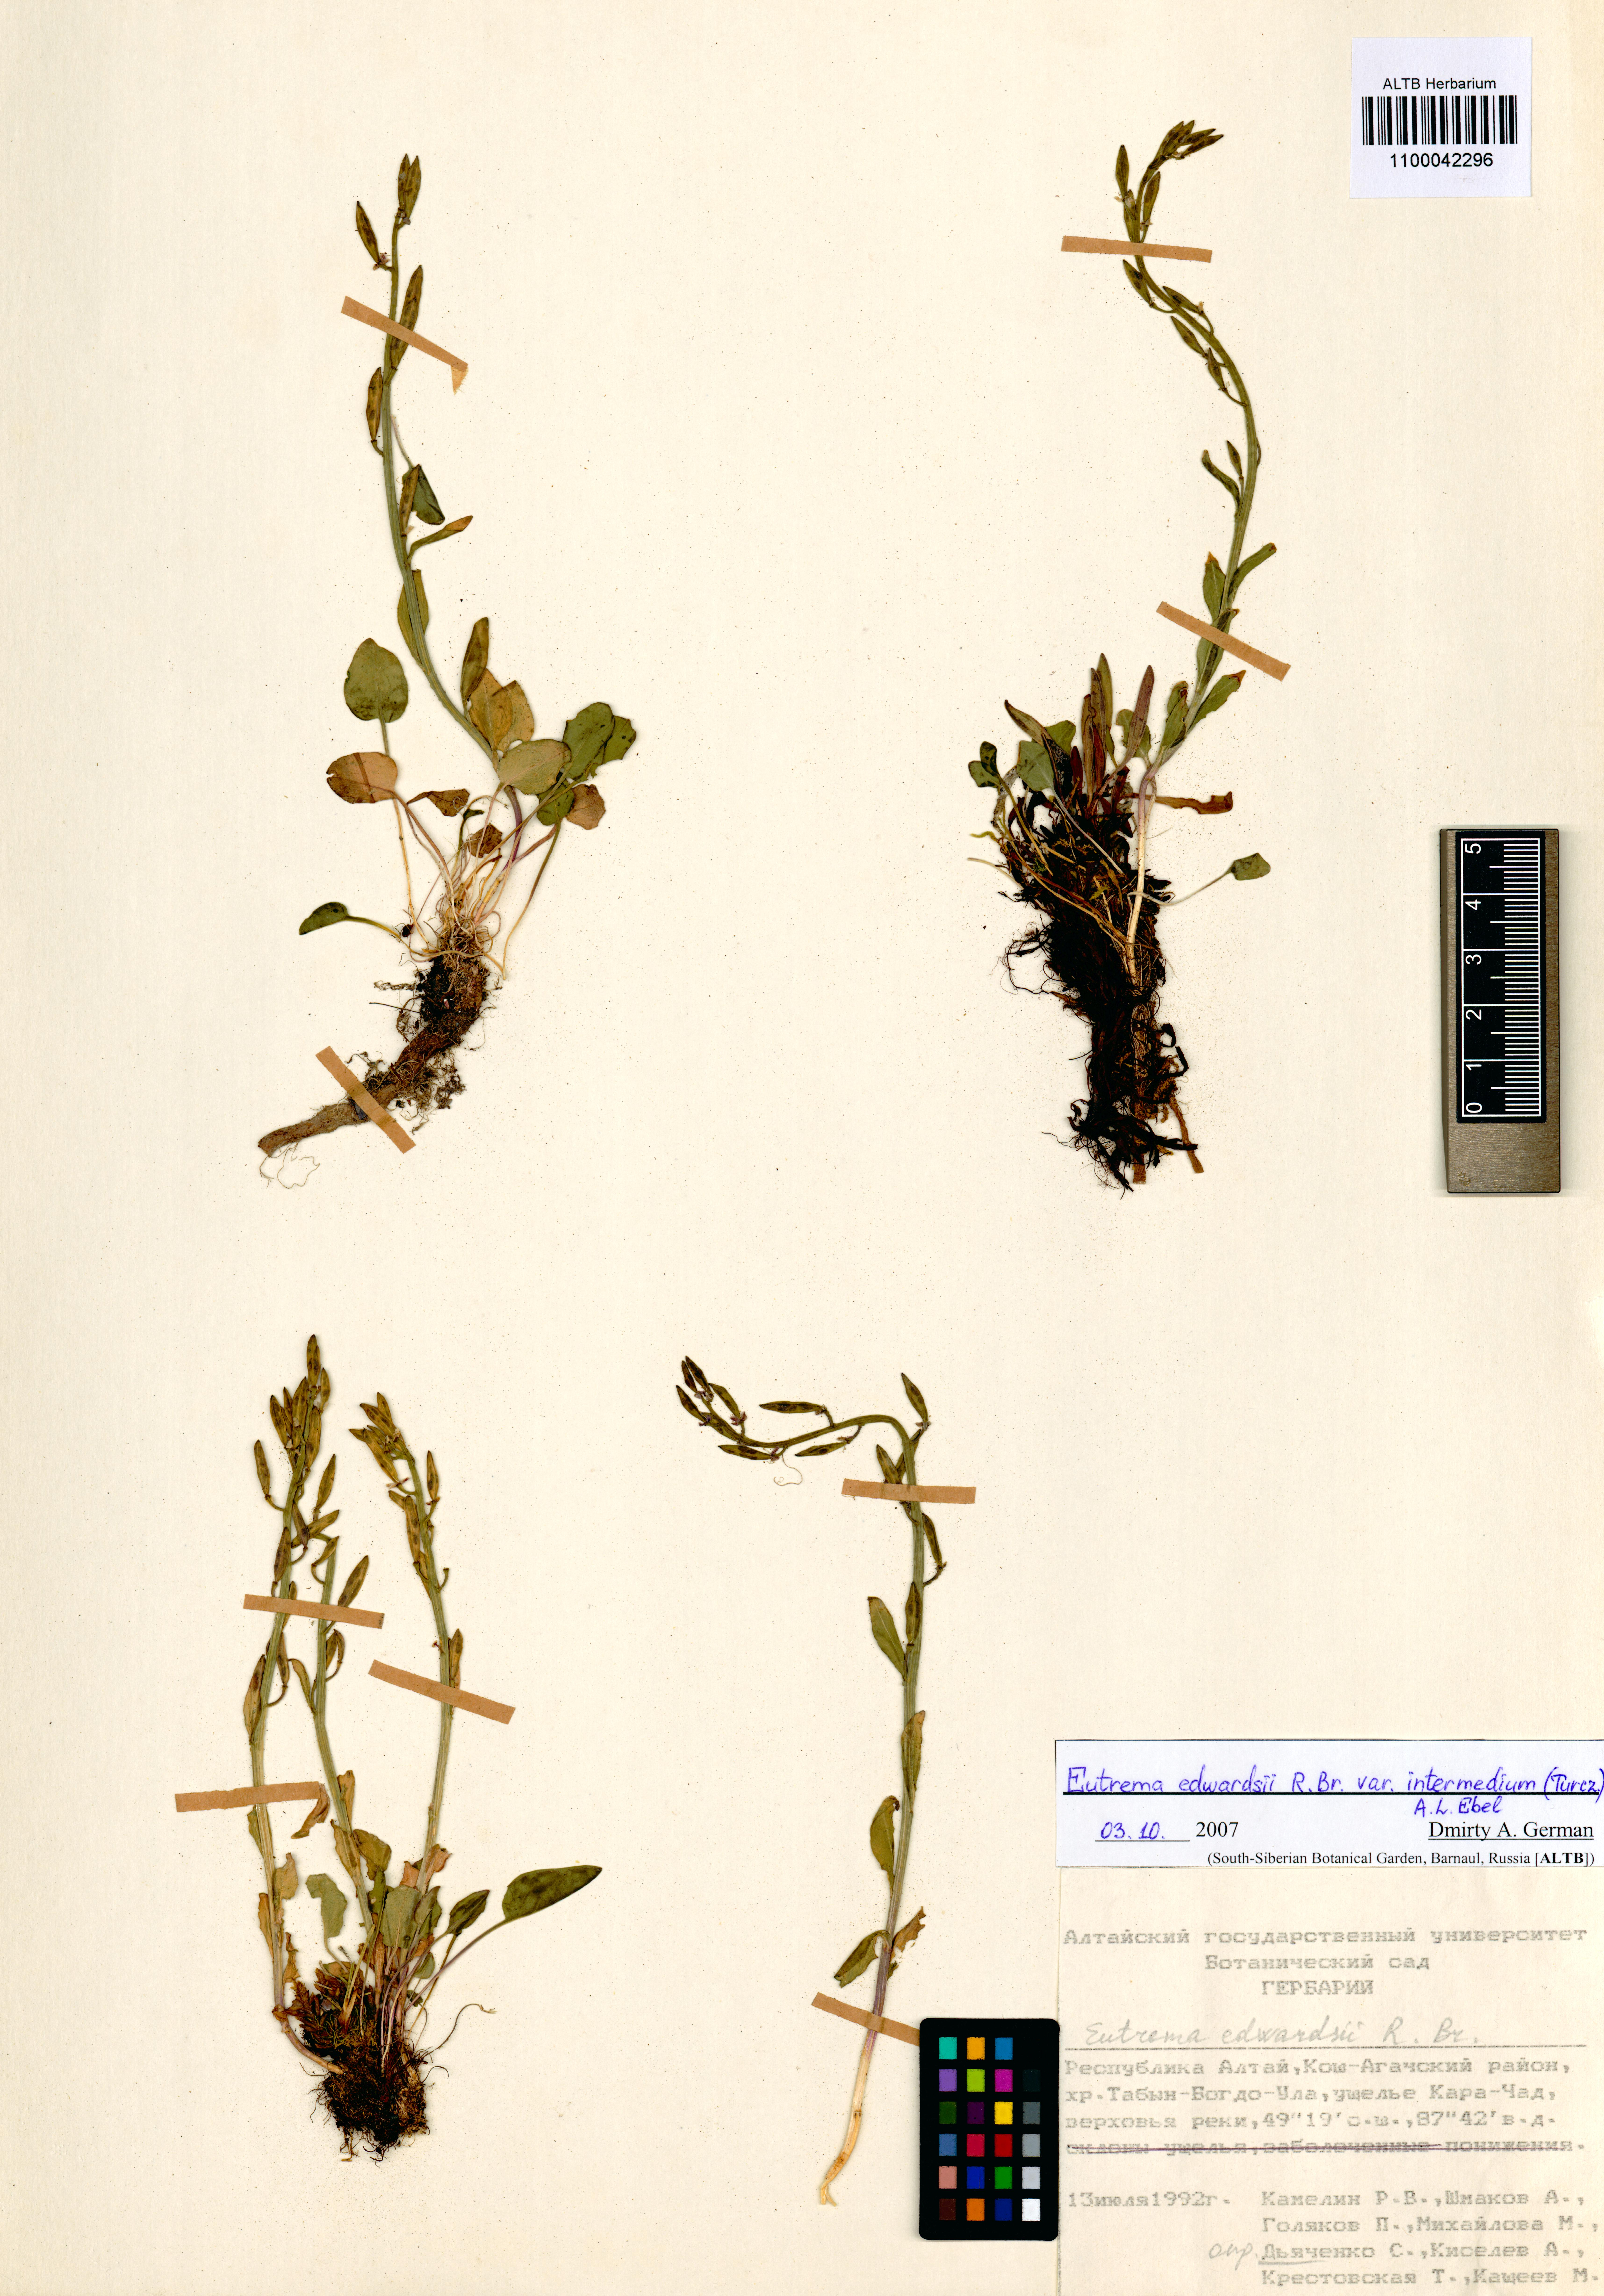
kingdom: Plantae
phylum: Tracheophyta
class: Magnoliopsida
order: Brassicales
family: Brassicaceae
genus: Eutrema
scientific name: Eutrema edwardsii
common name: Penland alpine fen mustard
